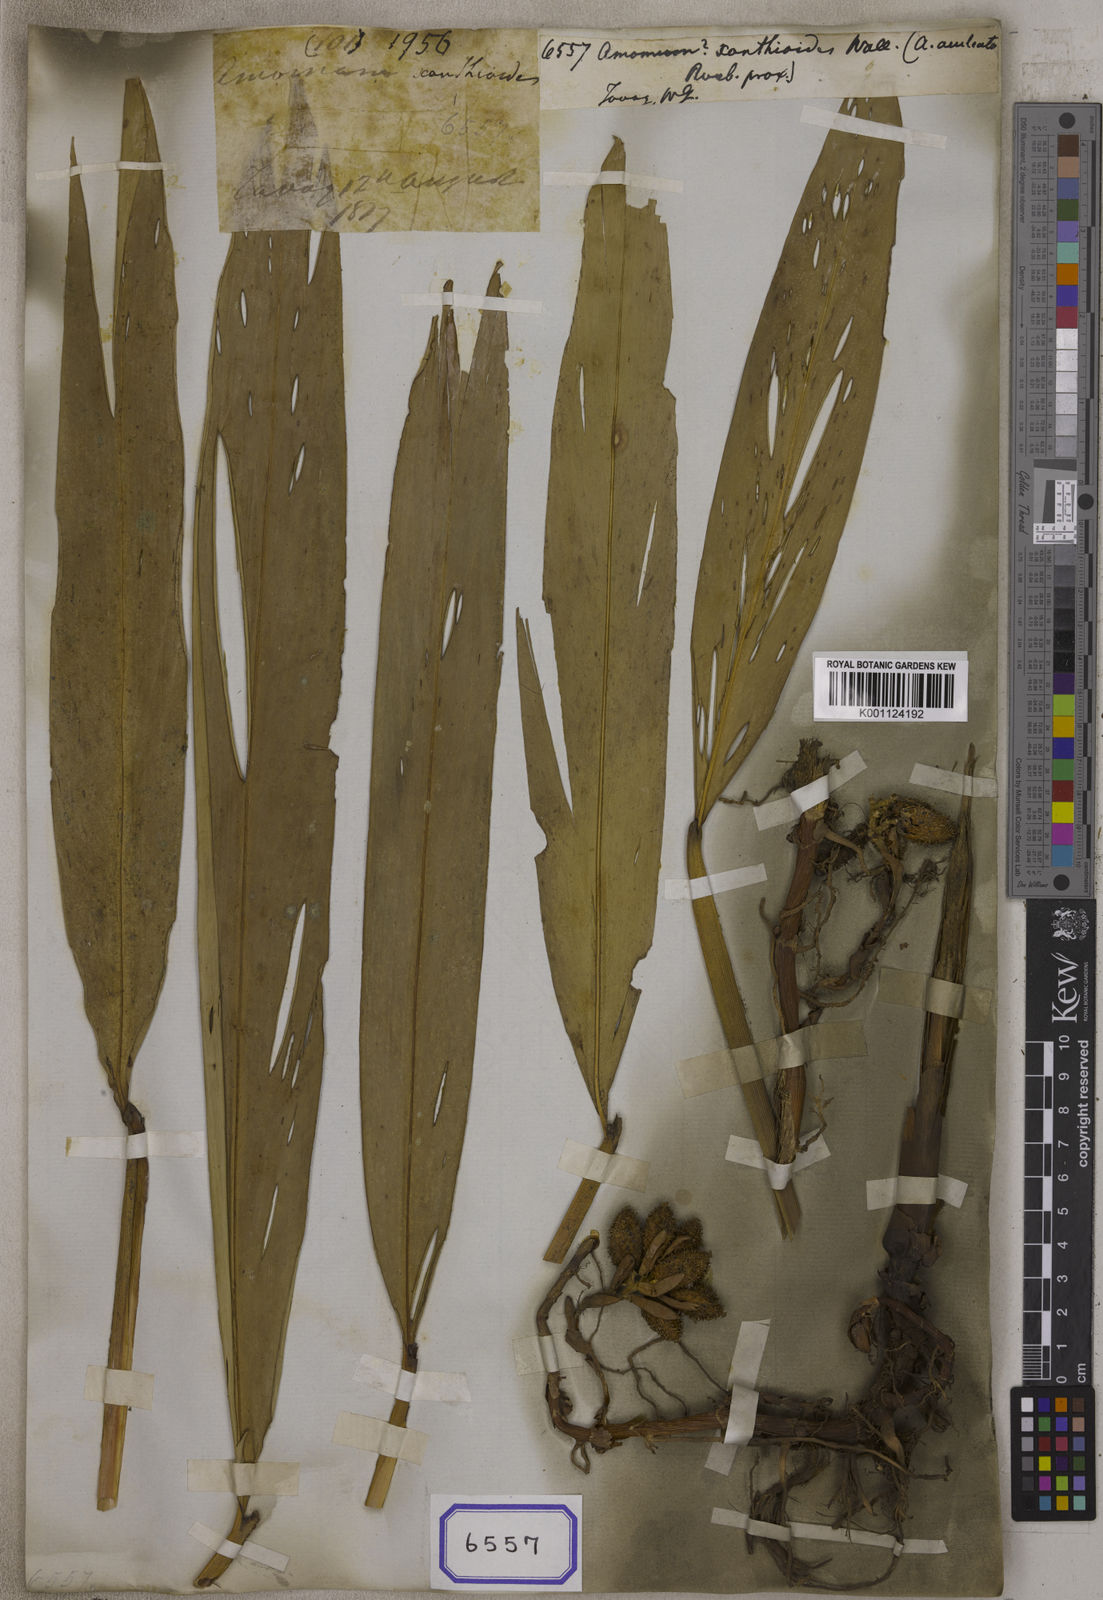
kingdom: Plantae
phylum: Tracheophyta
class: Liliopsida
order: Zingiberales
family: Zingiberaceae
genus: Amomum
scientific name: Amomum
